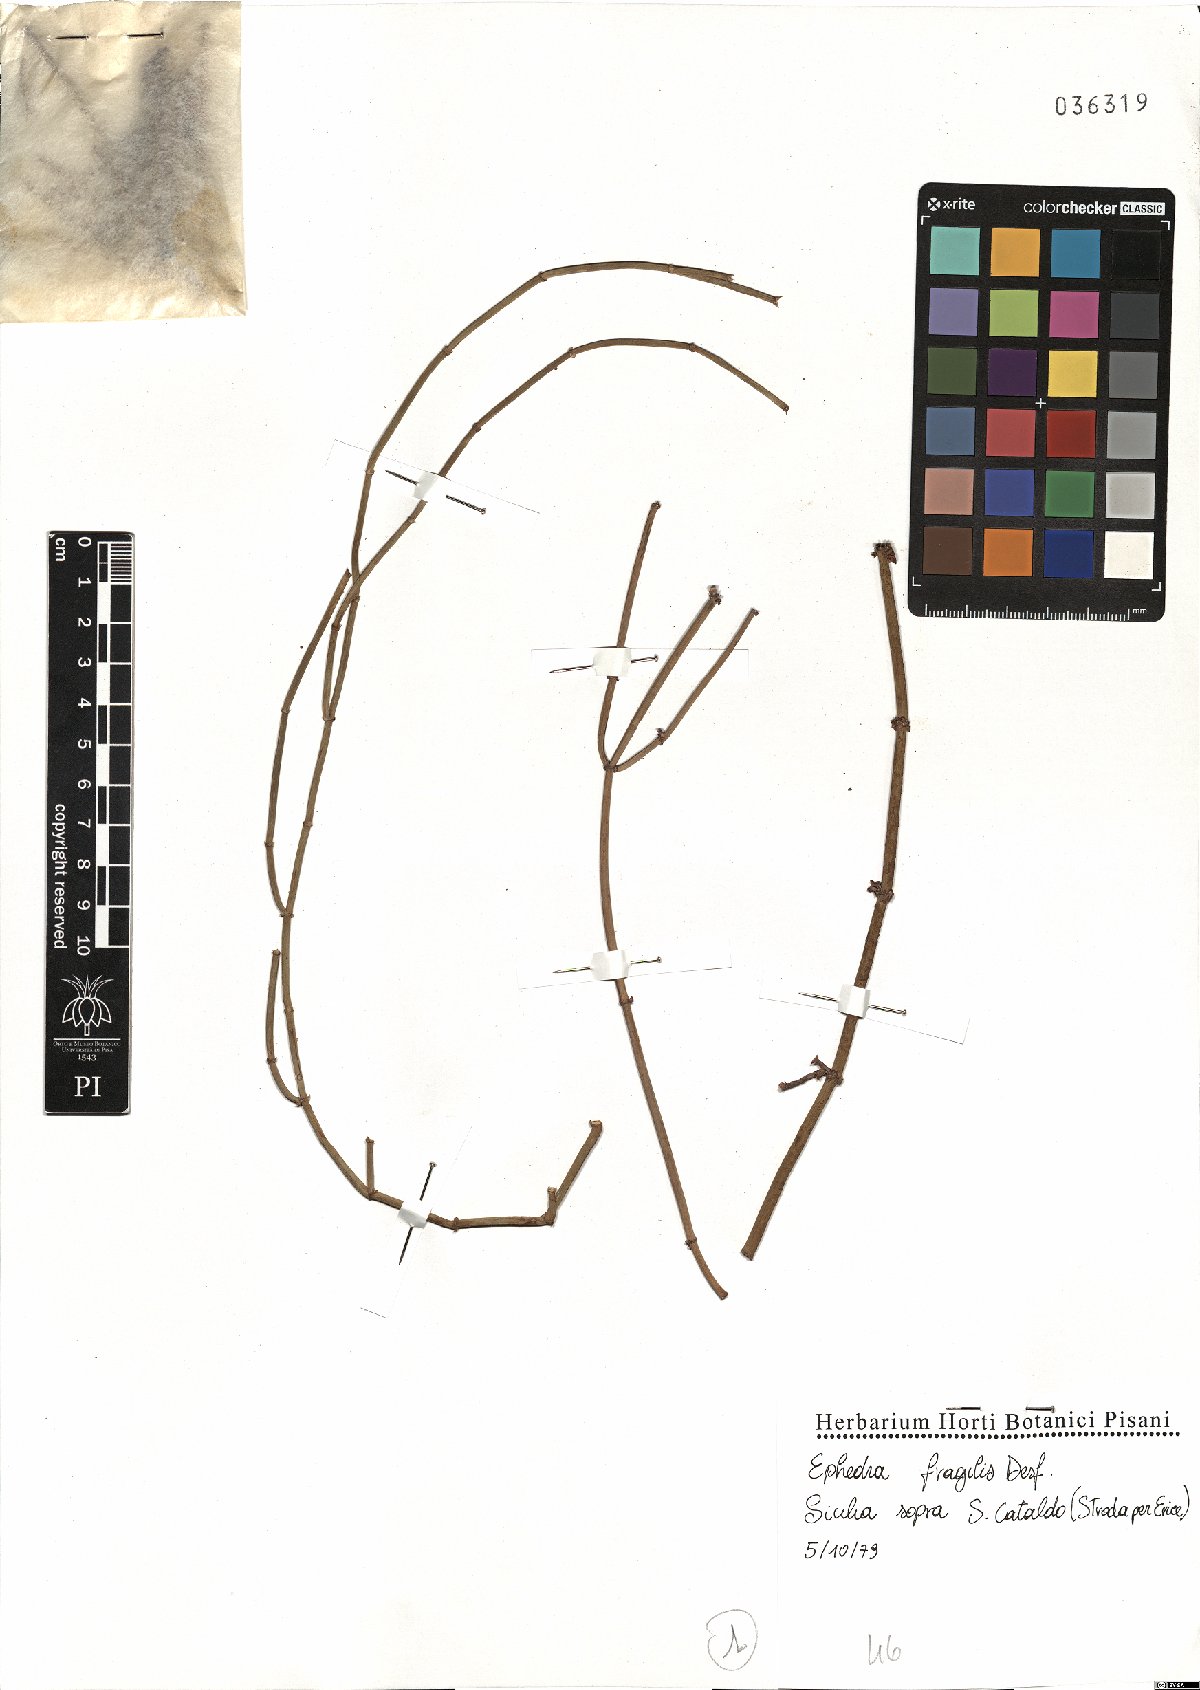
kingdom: Plantae
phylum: Tracheophyta
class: Gnetopsida
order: Ephedrales
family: Ephedraceae
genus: Ephedra
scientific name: Ephedra fragilis
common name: Joint pine
